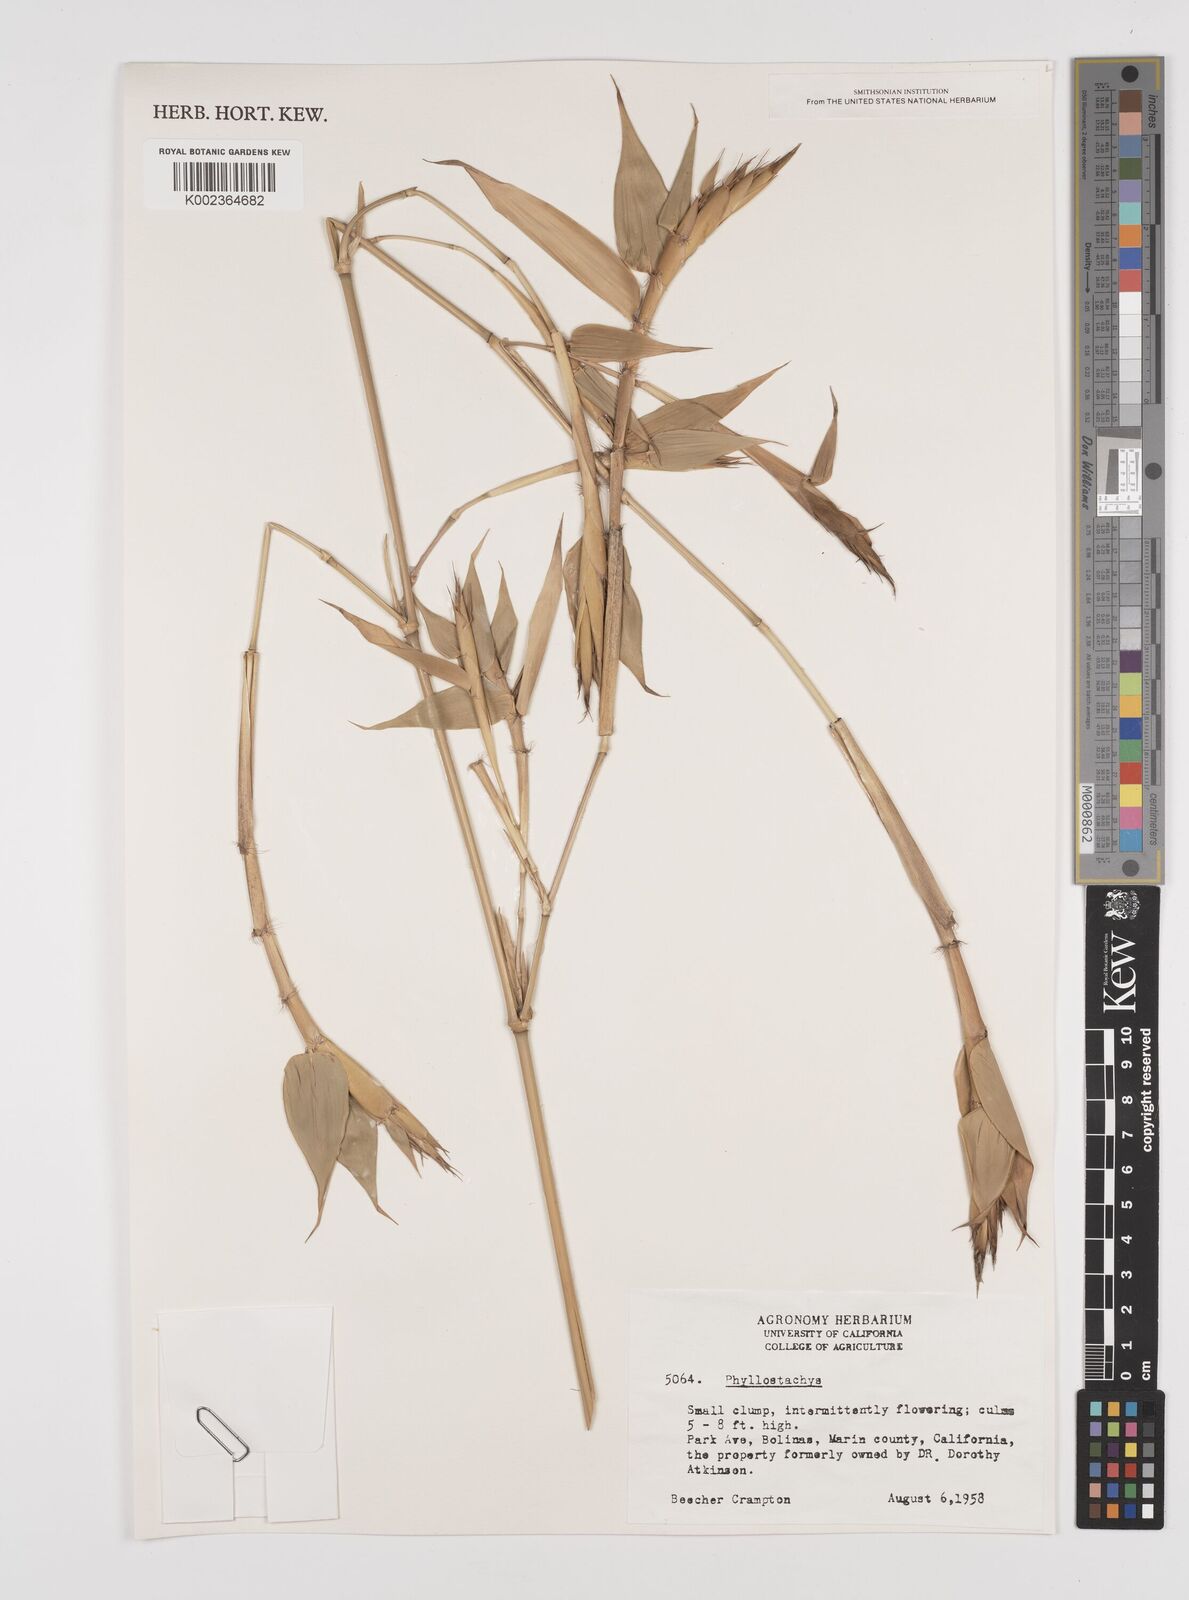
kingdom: Plantae
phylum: Tracheophyta
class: Liliopsida
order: Poales
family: Poaceae
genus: Phyllostachys
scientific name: Phyllostachys
